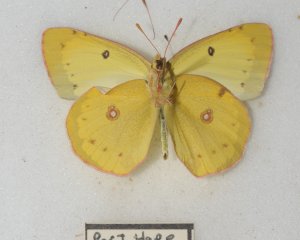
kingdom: Animalia
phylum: Arthropoda
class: Insecta
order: Lepidoptera
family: Pieridae
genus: Colias
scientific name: Colias philodice
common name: Clouded Sulphur
